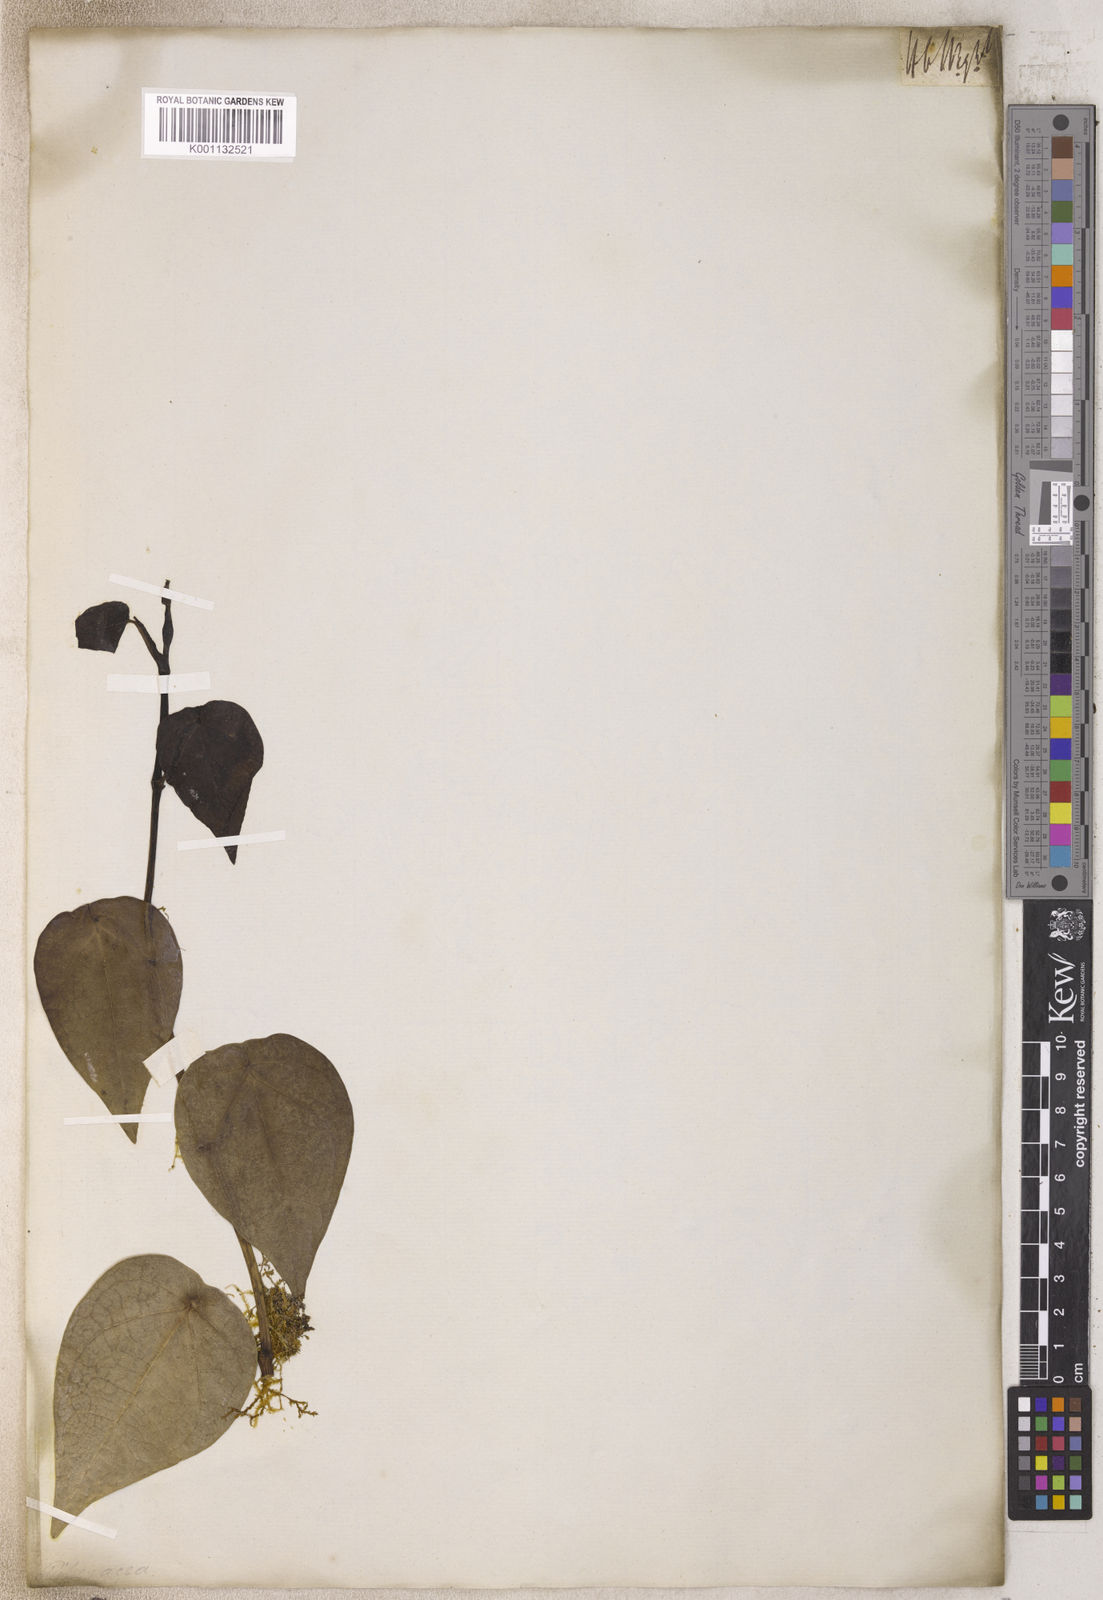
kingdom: Plantae
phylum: Tracheophyta
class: Magnoliopsida
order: Piperales
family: Piperaceae
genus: Piper
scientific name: Piper
